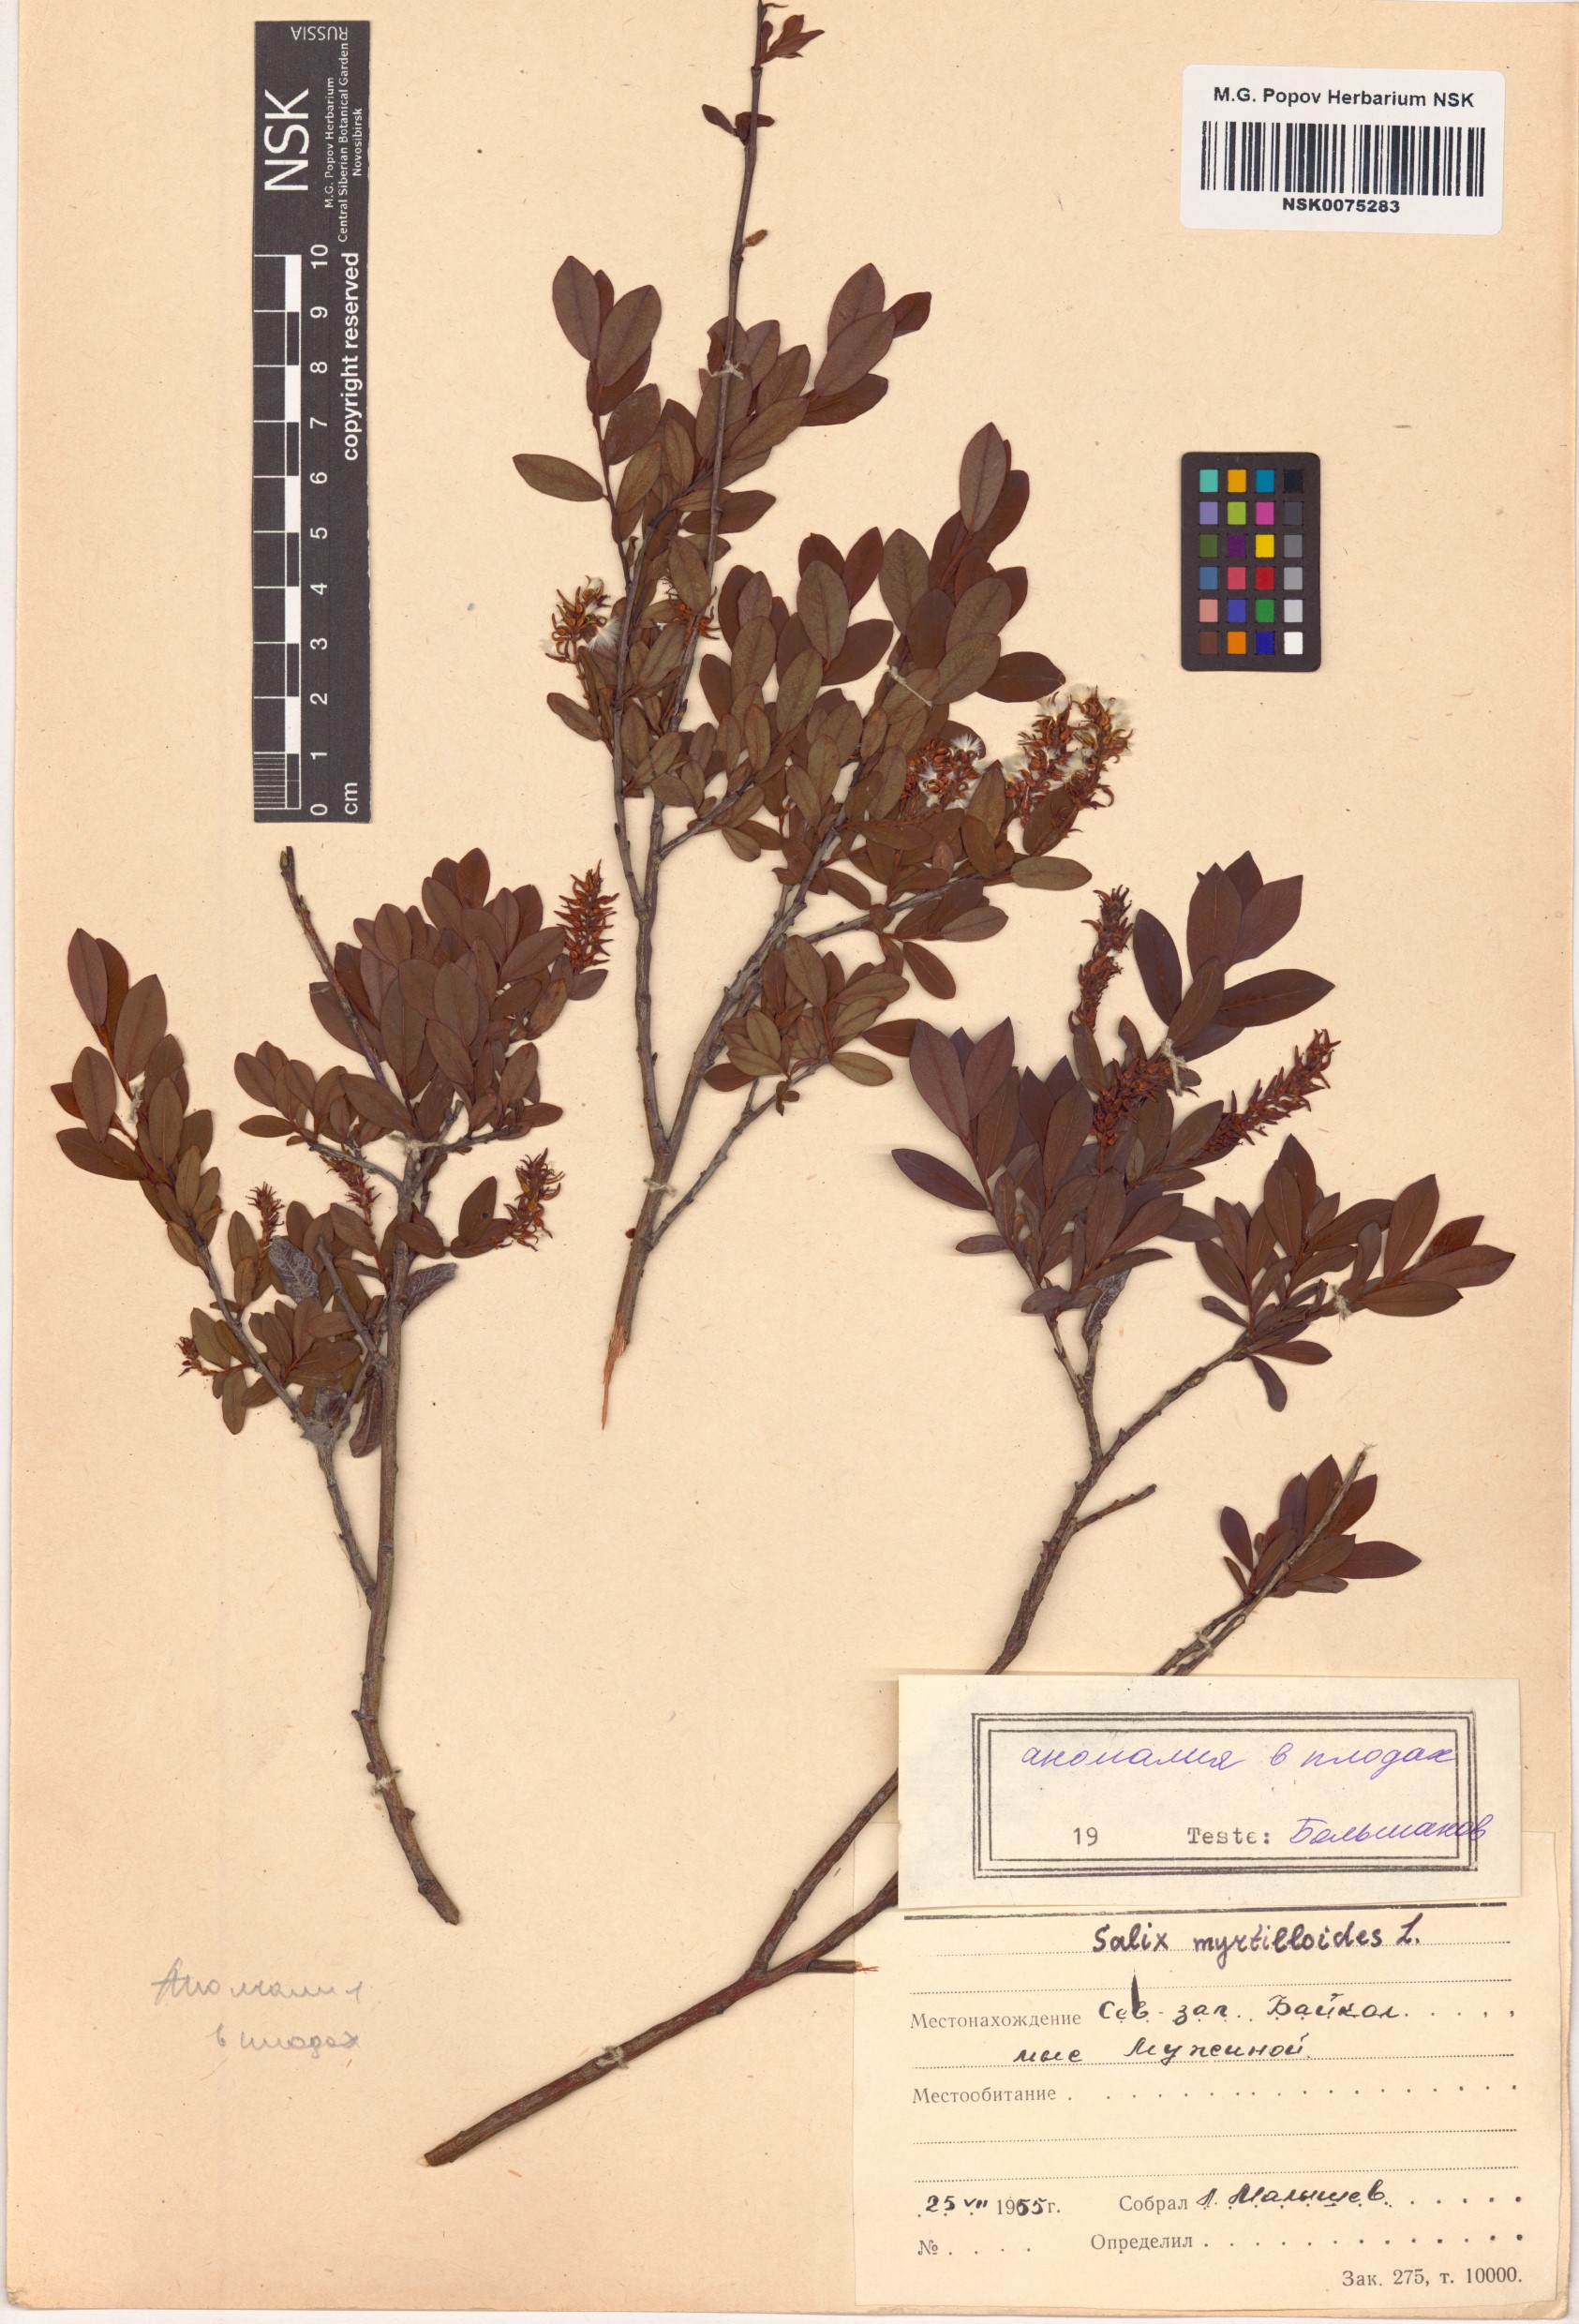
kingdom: Plantae
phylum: Tracheophyta
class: Magnoliopsida
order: Malpighiales
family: Salicaceae
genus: Salix
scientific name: Salix myrtilloides
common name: Myrtle-leaved willow
